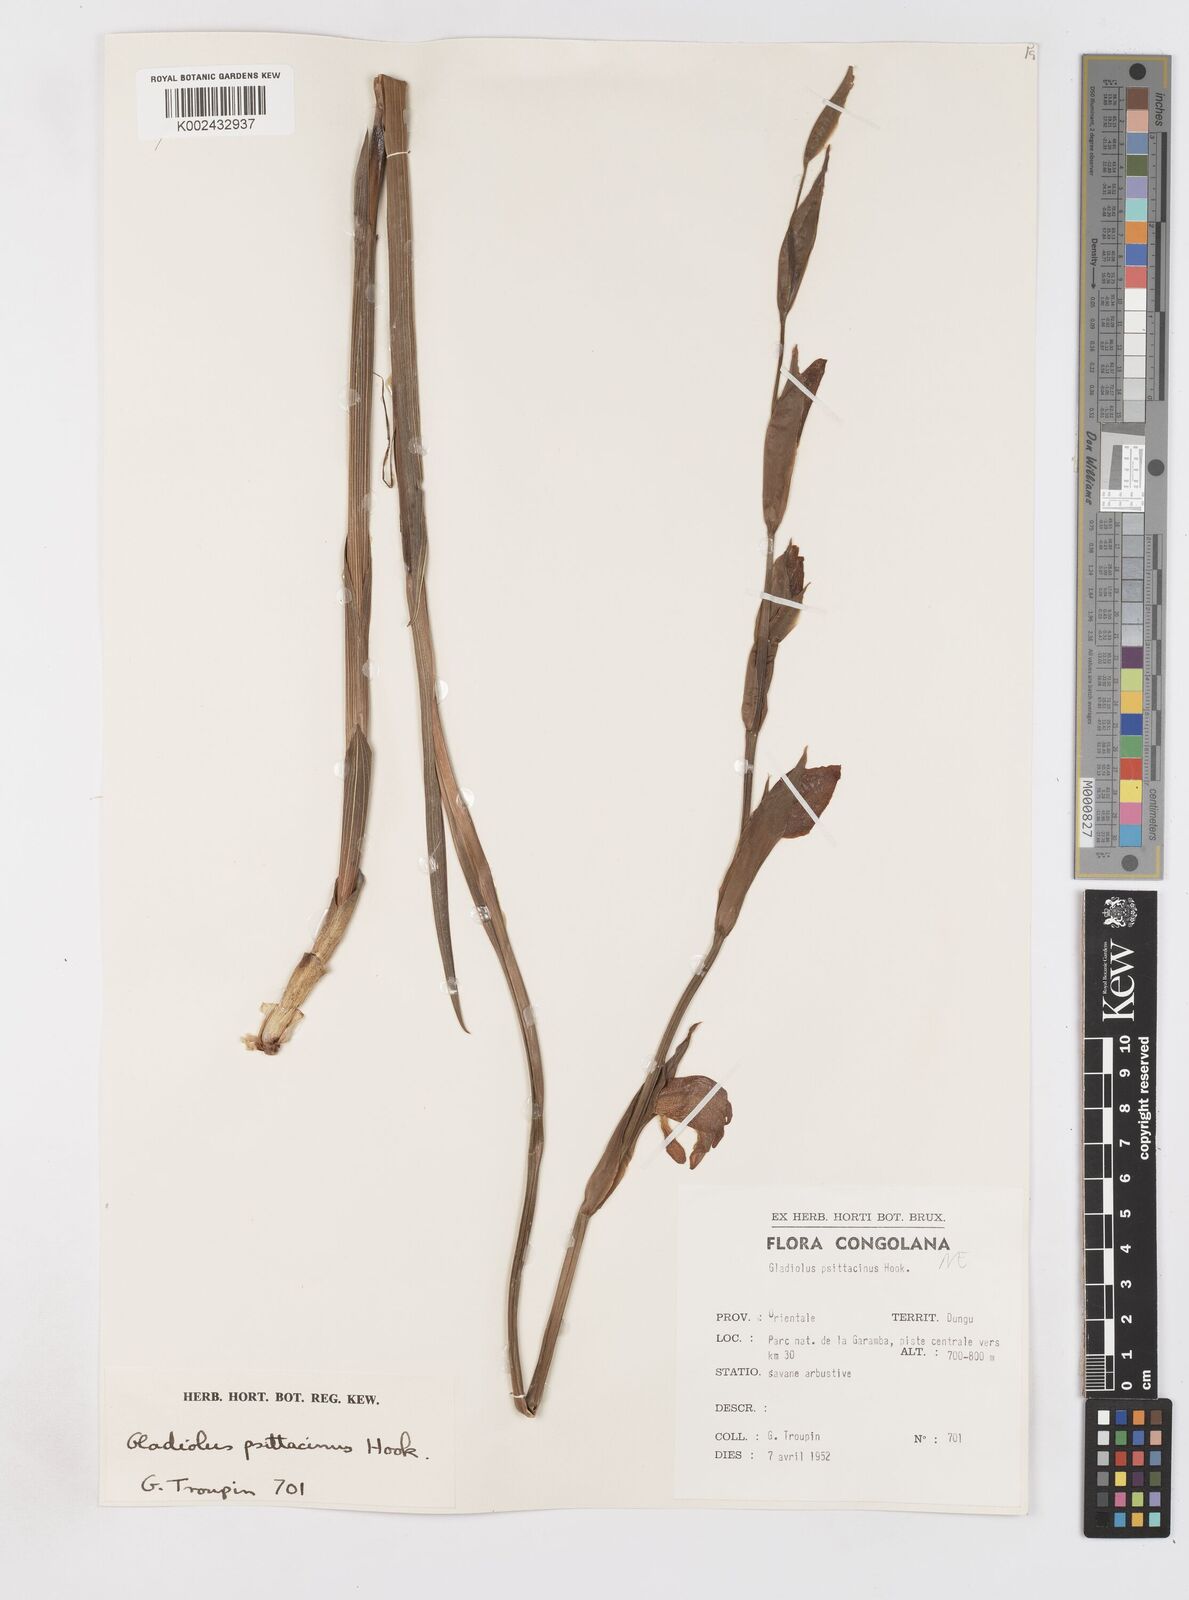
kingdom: Plantae
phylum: Tracheophyta
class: Liliopsida
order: Asparagales
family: Iridaceae
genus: Gladiolus
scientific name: Gladiolus dalenii
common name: Cornflag
